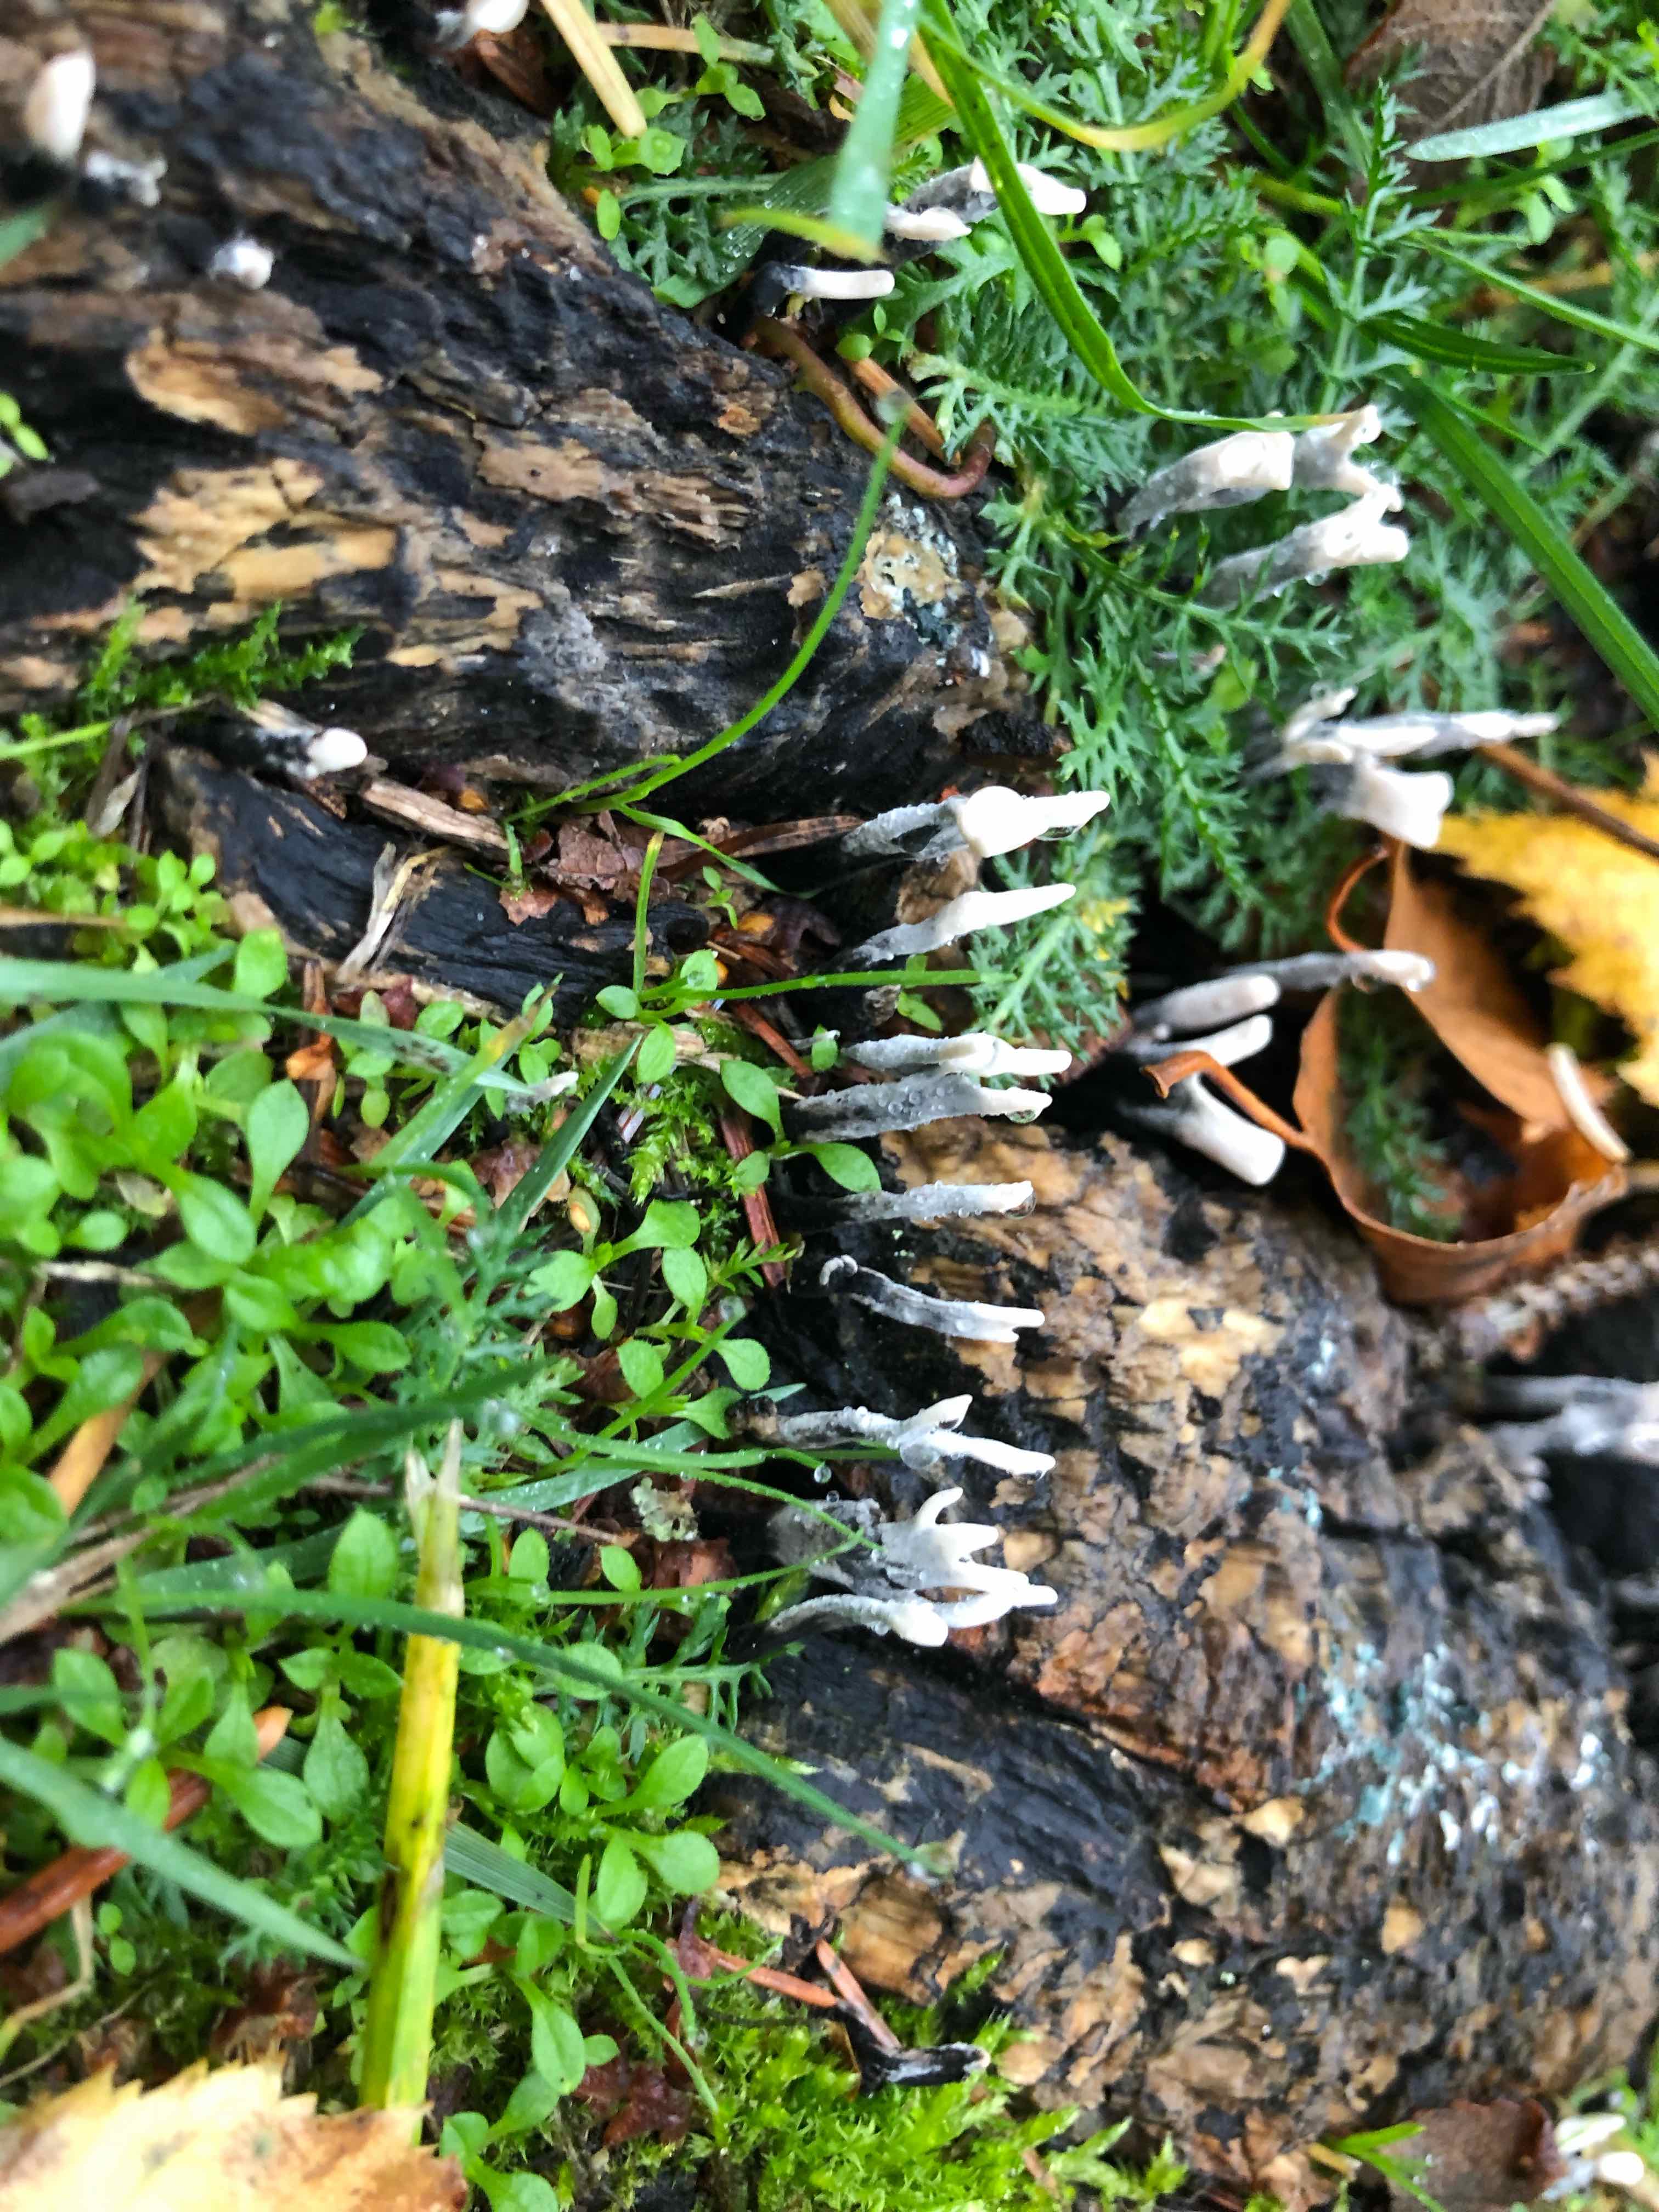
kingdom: Fungi
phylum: Ascomycota
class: Sordariomycetes
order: Xylariales
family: Xylariaceae
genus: Xylaria
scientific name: Xylaria hypoxylon
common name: grenet stødsvamp
